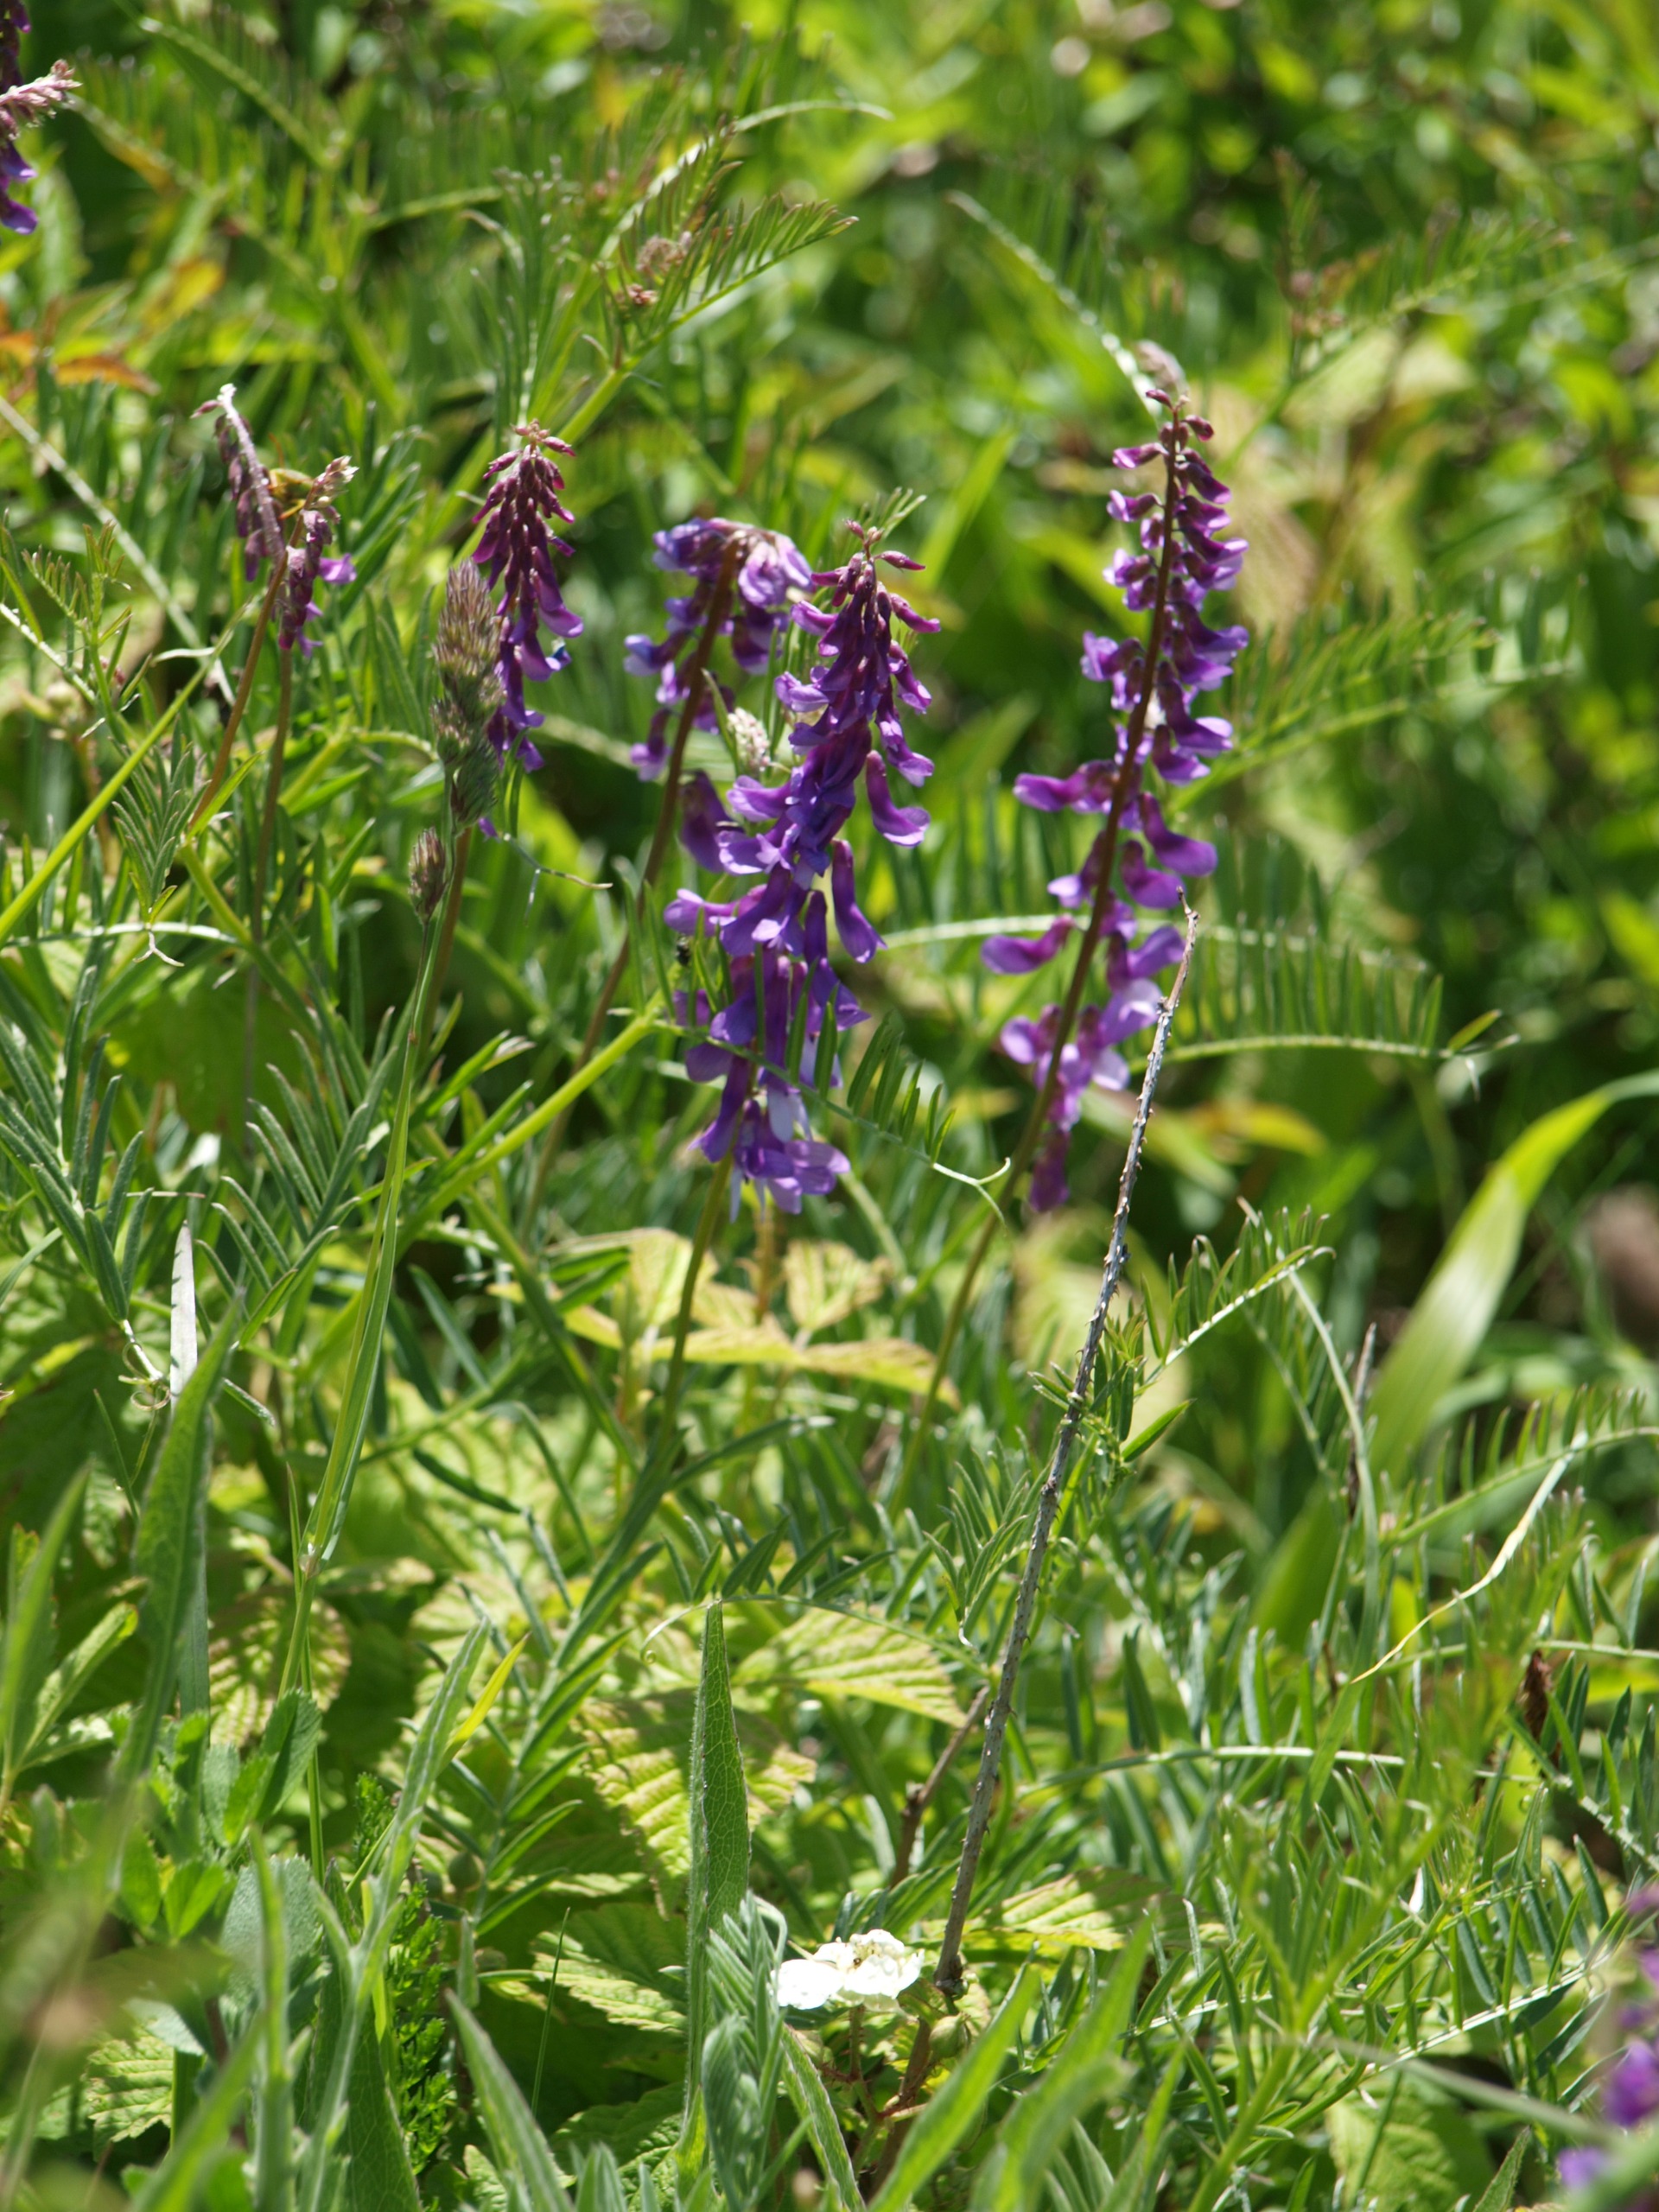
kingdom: Plantae
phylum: Tracheophyta
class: Magnoliopsida
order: Fabales
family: Fabaceae
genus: Vicia
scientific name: Vicia cracca
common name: Muse-vikke
